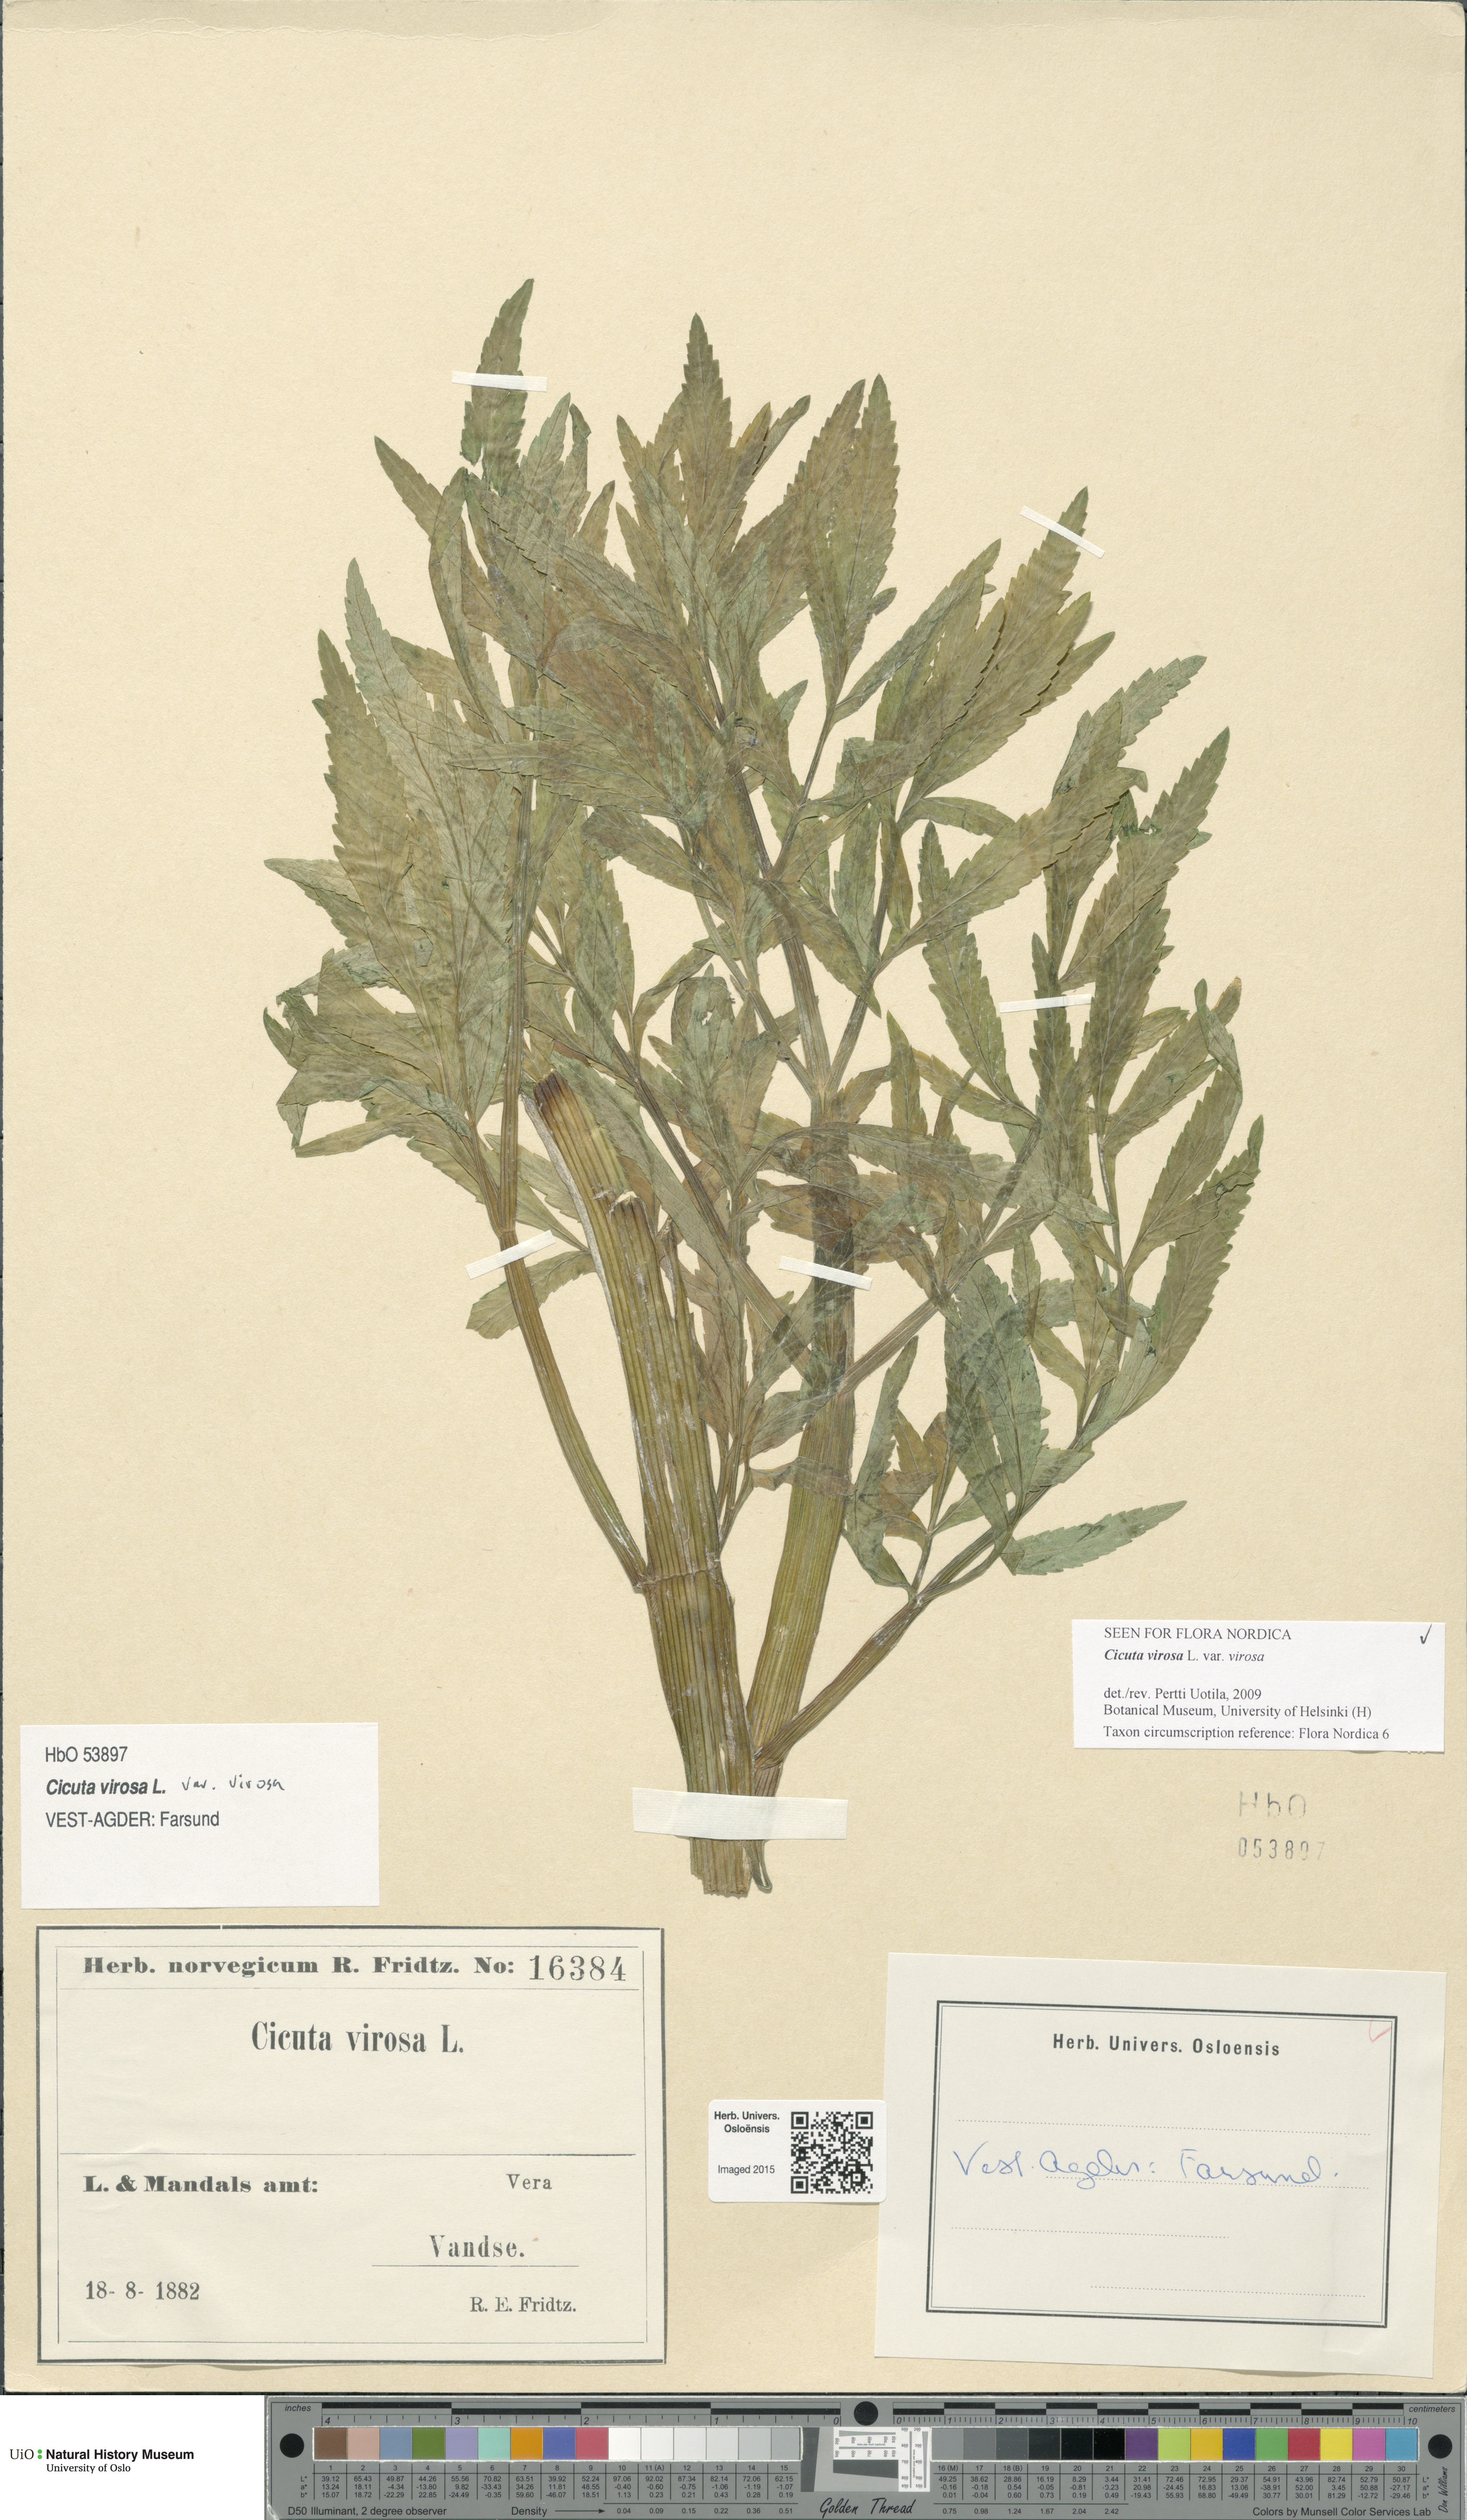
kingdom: Plantae
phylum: Tracheophyta
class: Magnoliopsida
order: Apiales
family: Apiaceae
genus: Cicuta
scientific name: Cicuta virosa
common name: Cowbane
